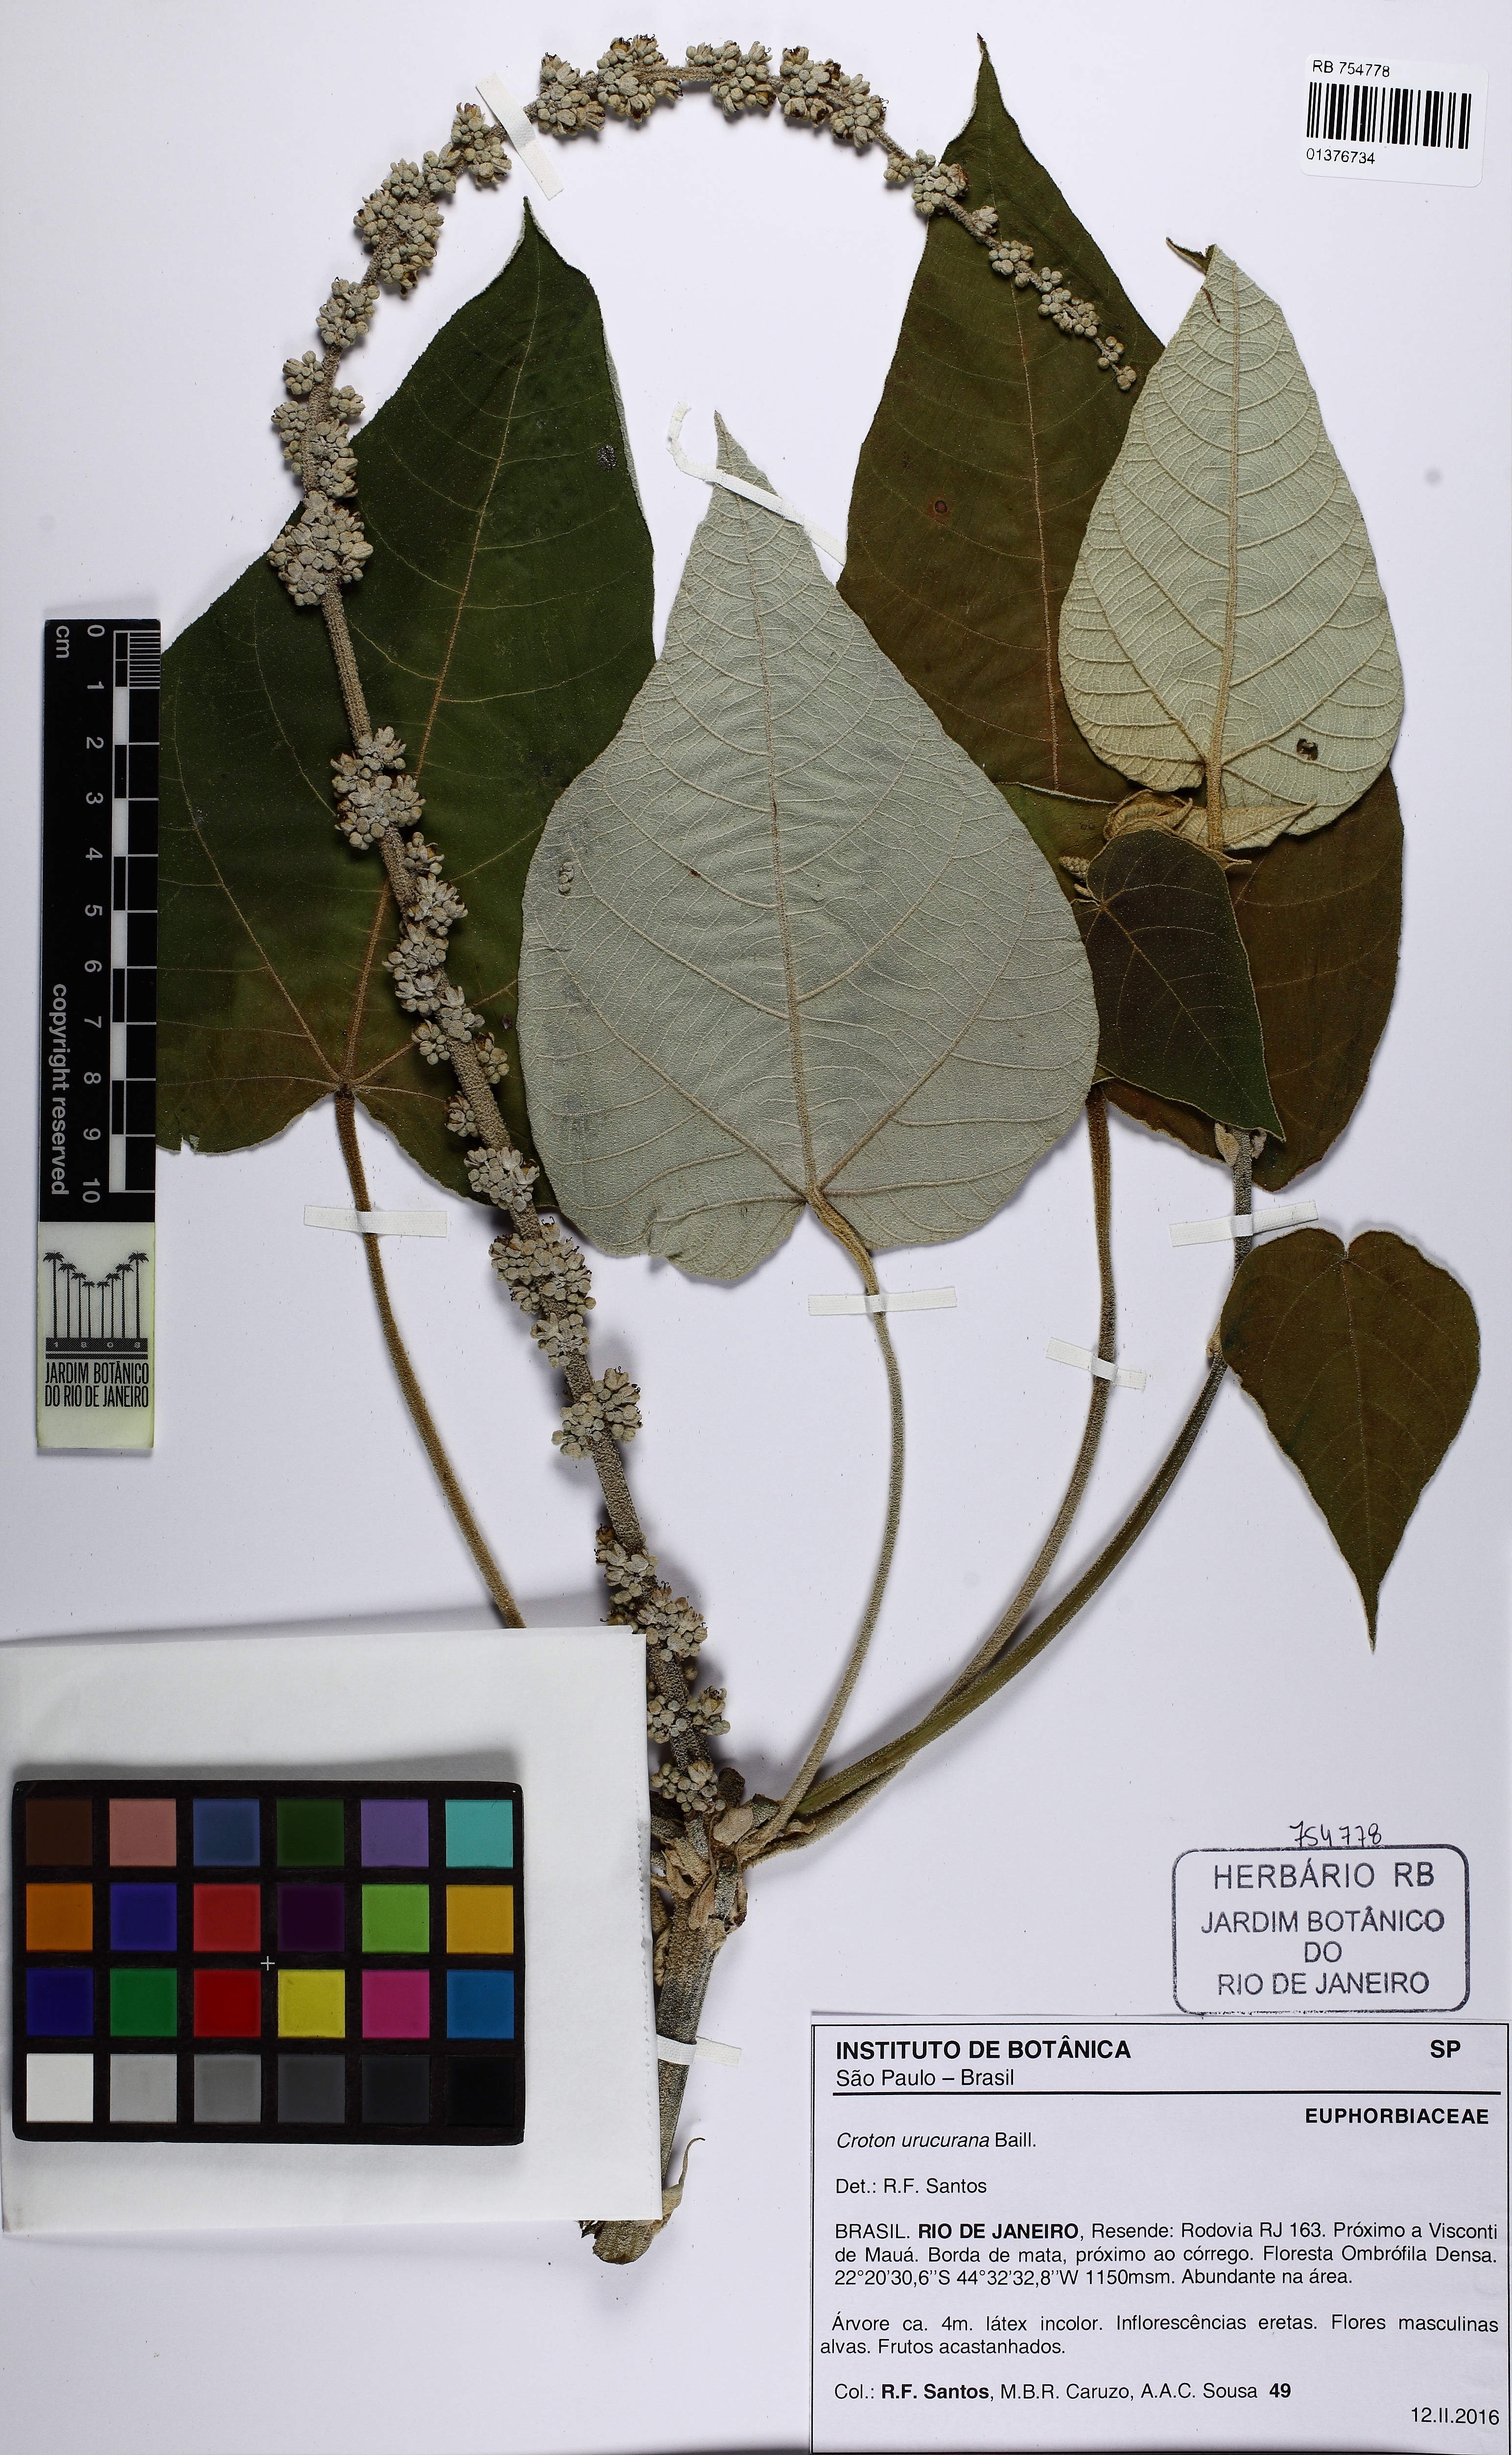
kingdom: Plantae
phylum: Tracheophyta
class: Magnoliopsida
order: Malpighiales
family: Euphorbiaceae
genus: Croton
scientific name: Croton urucurana
